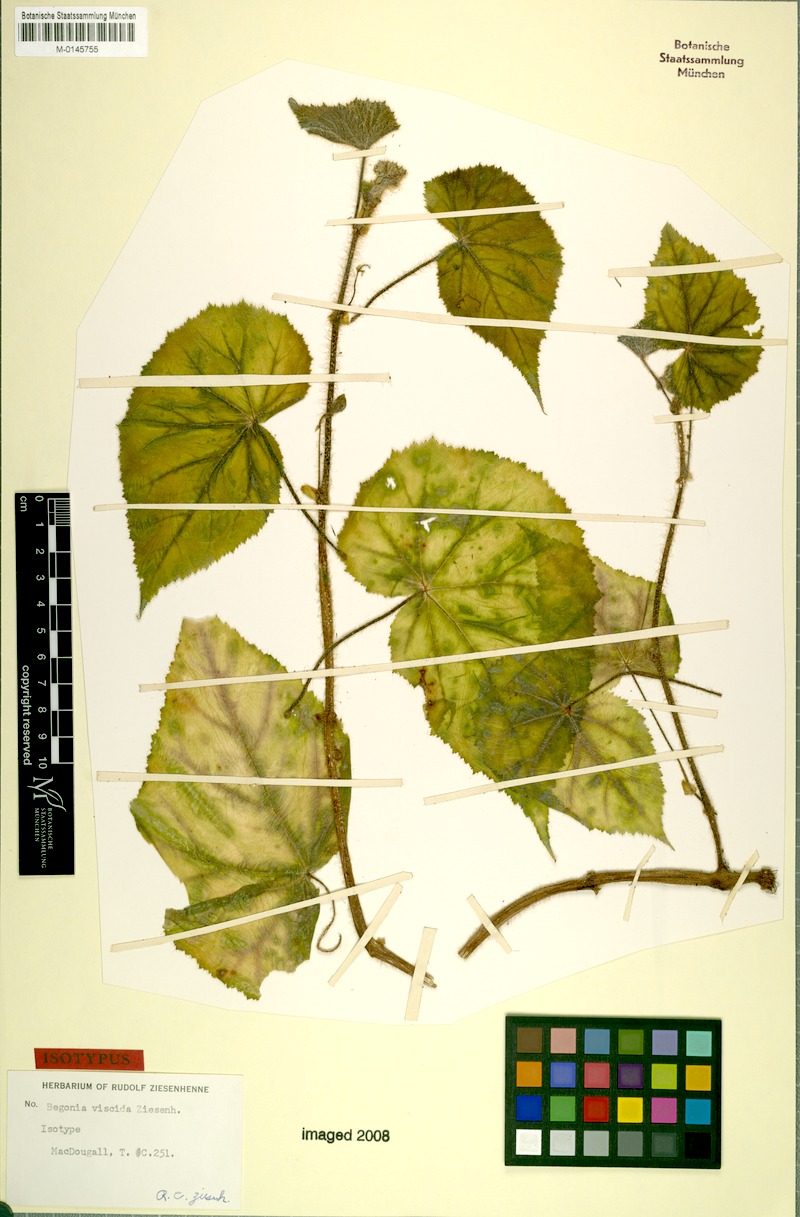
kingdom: Plantae
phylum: Tracheophyta
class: Magnoliopsida
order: Cucurbitales
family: Begoniaceae
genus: Begonia
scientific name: Begonia viscida
